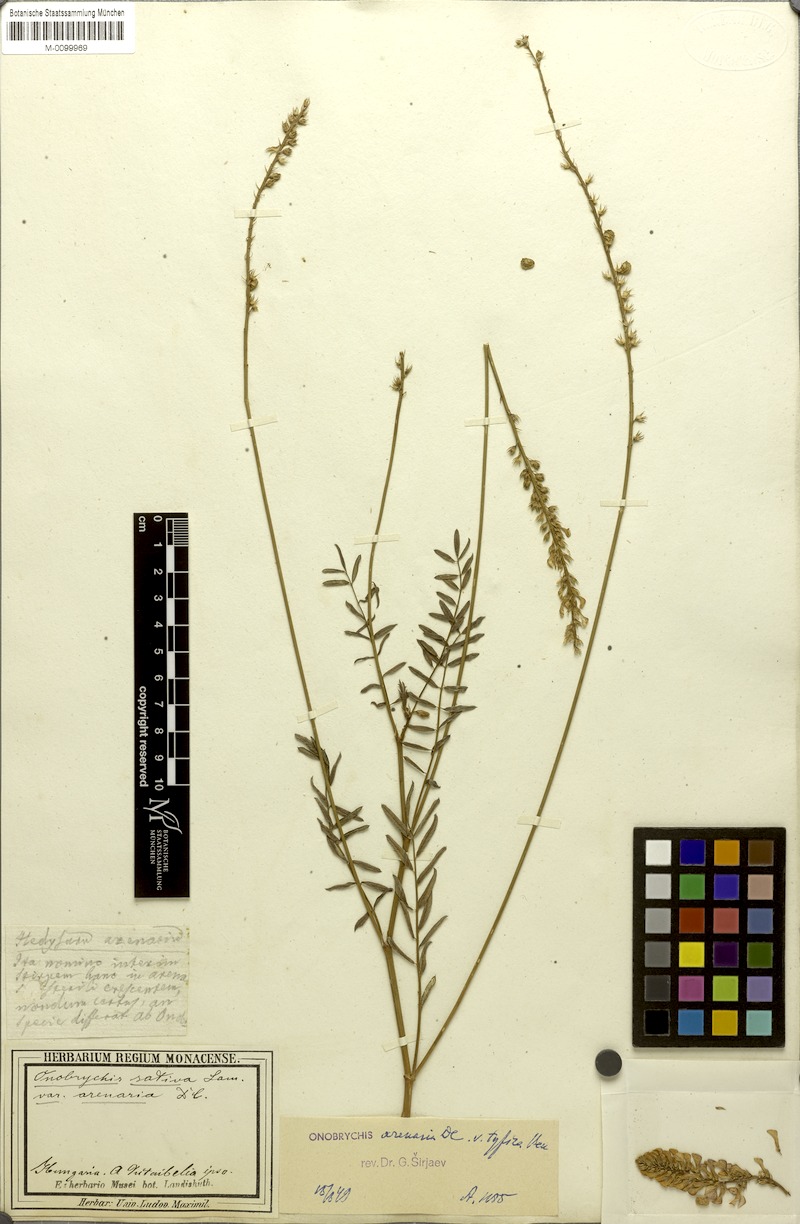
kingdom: Plantae
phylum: Tracheophyta
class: Magnoliopsida
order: Fabales
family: Fabaceae
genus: Onobrychis
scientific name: Onobrychis arenaria
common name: Sand esparcet
